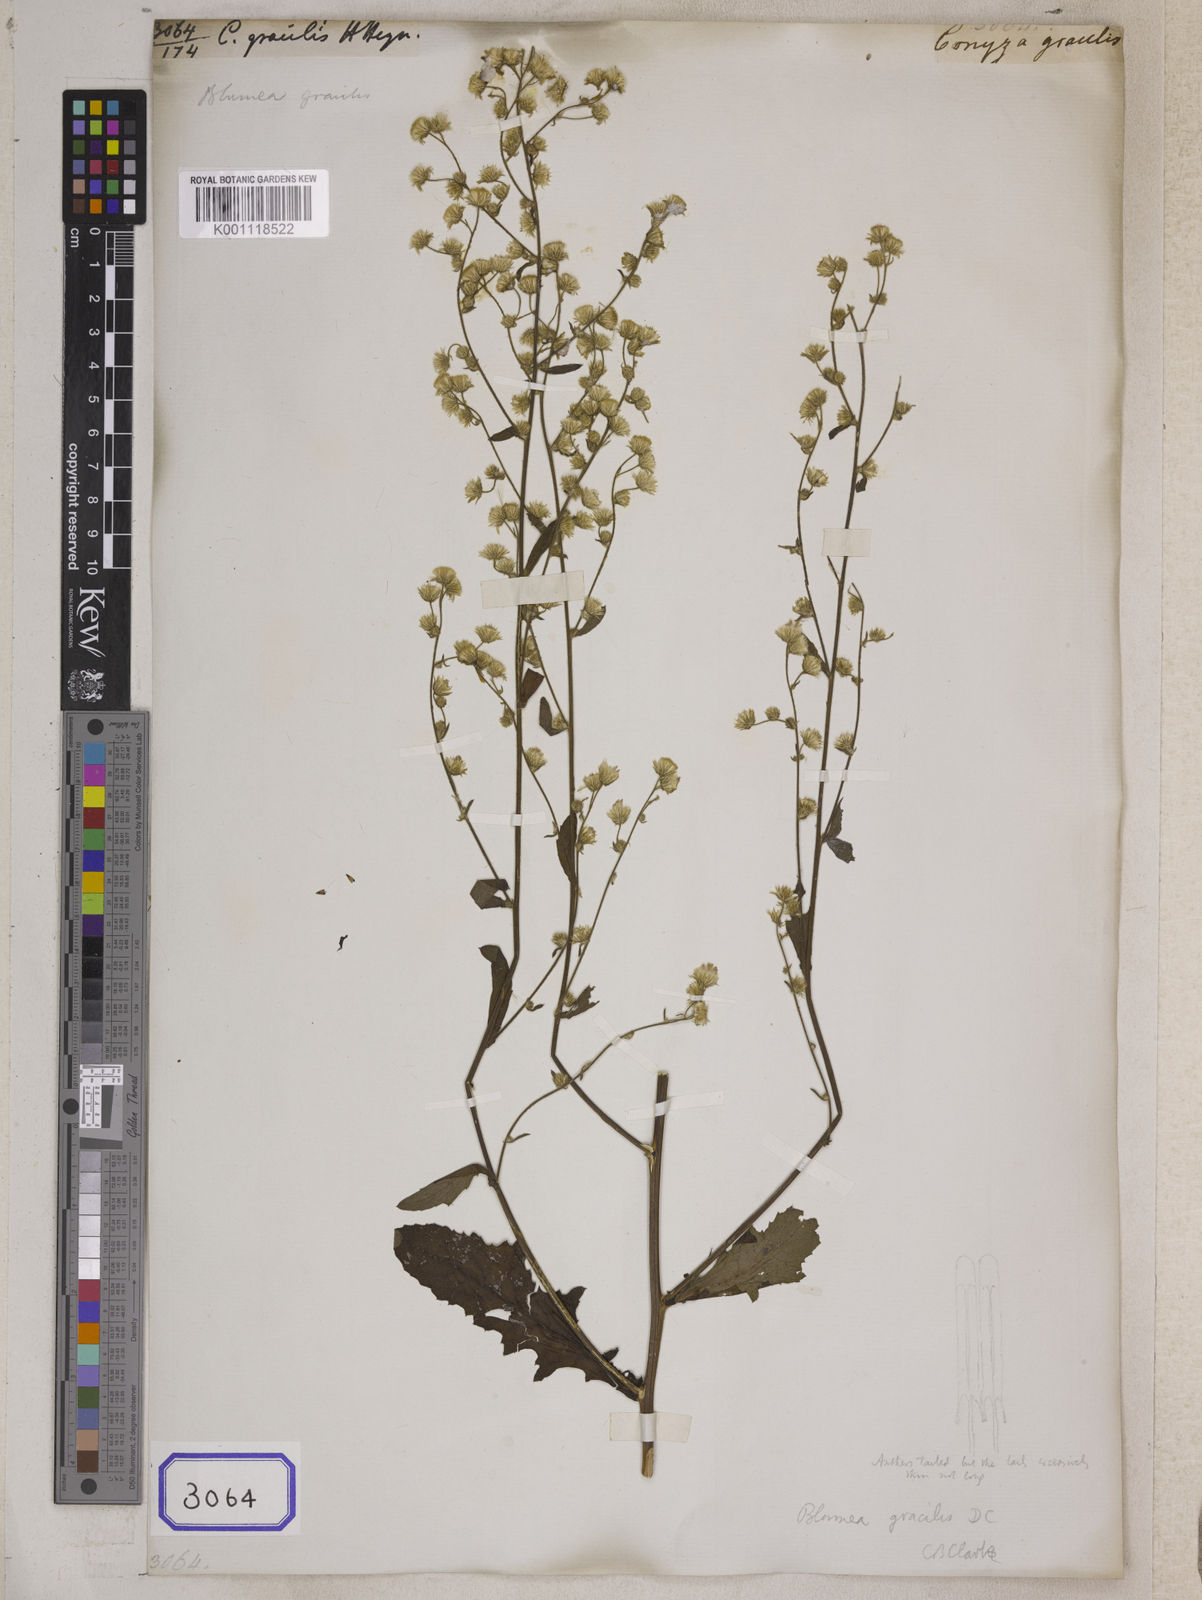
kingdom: Plantae
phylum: Tracheophyta
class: Magnoliopsida
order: Asterales
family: Asteraceae
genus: Conyza
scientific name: Conyza
